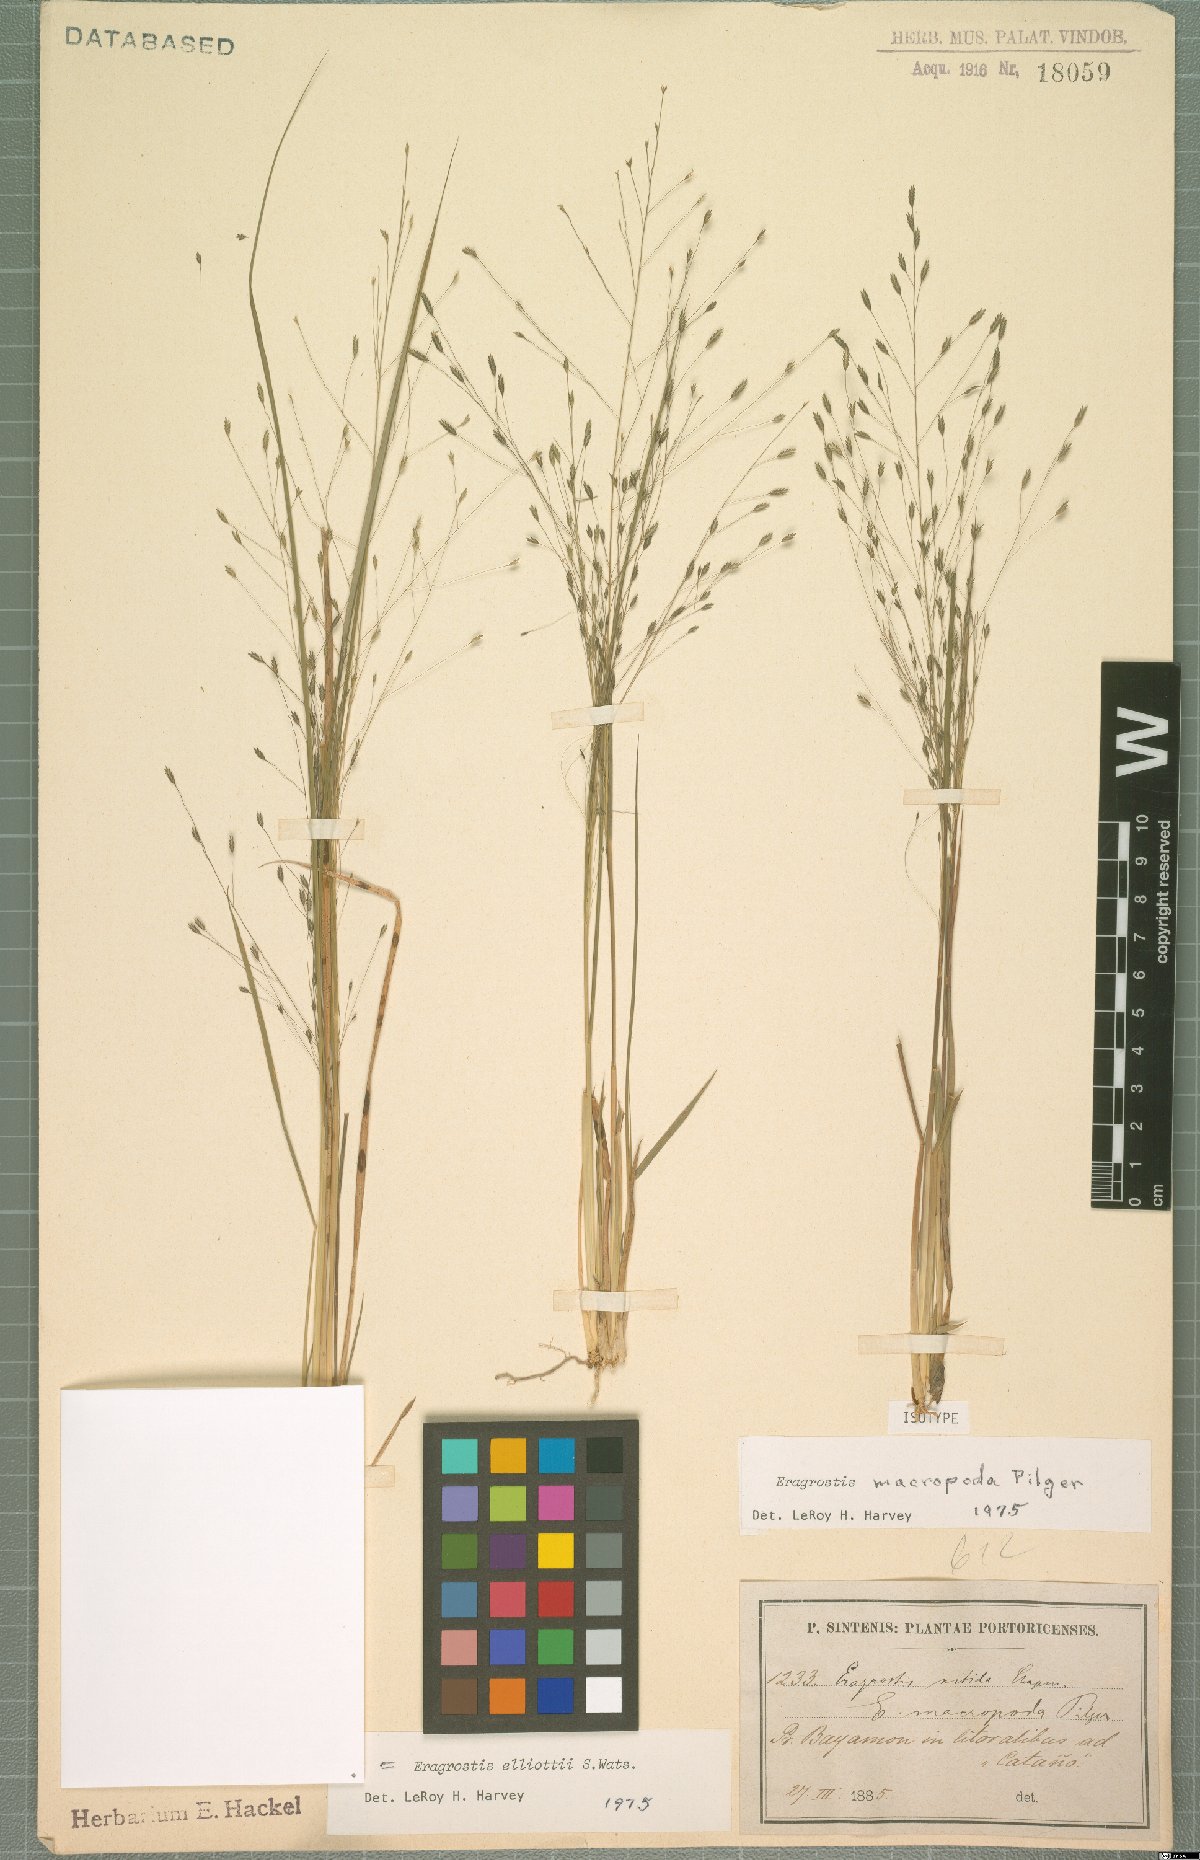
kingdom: Plantae
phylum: Tracheophyta
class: Liliopsida
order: Poales
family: Poaceae
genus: Eragrostis
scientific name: Eragrostis elliottii
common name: Elliott's love grass
